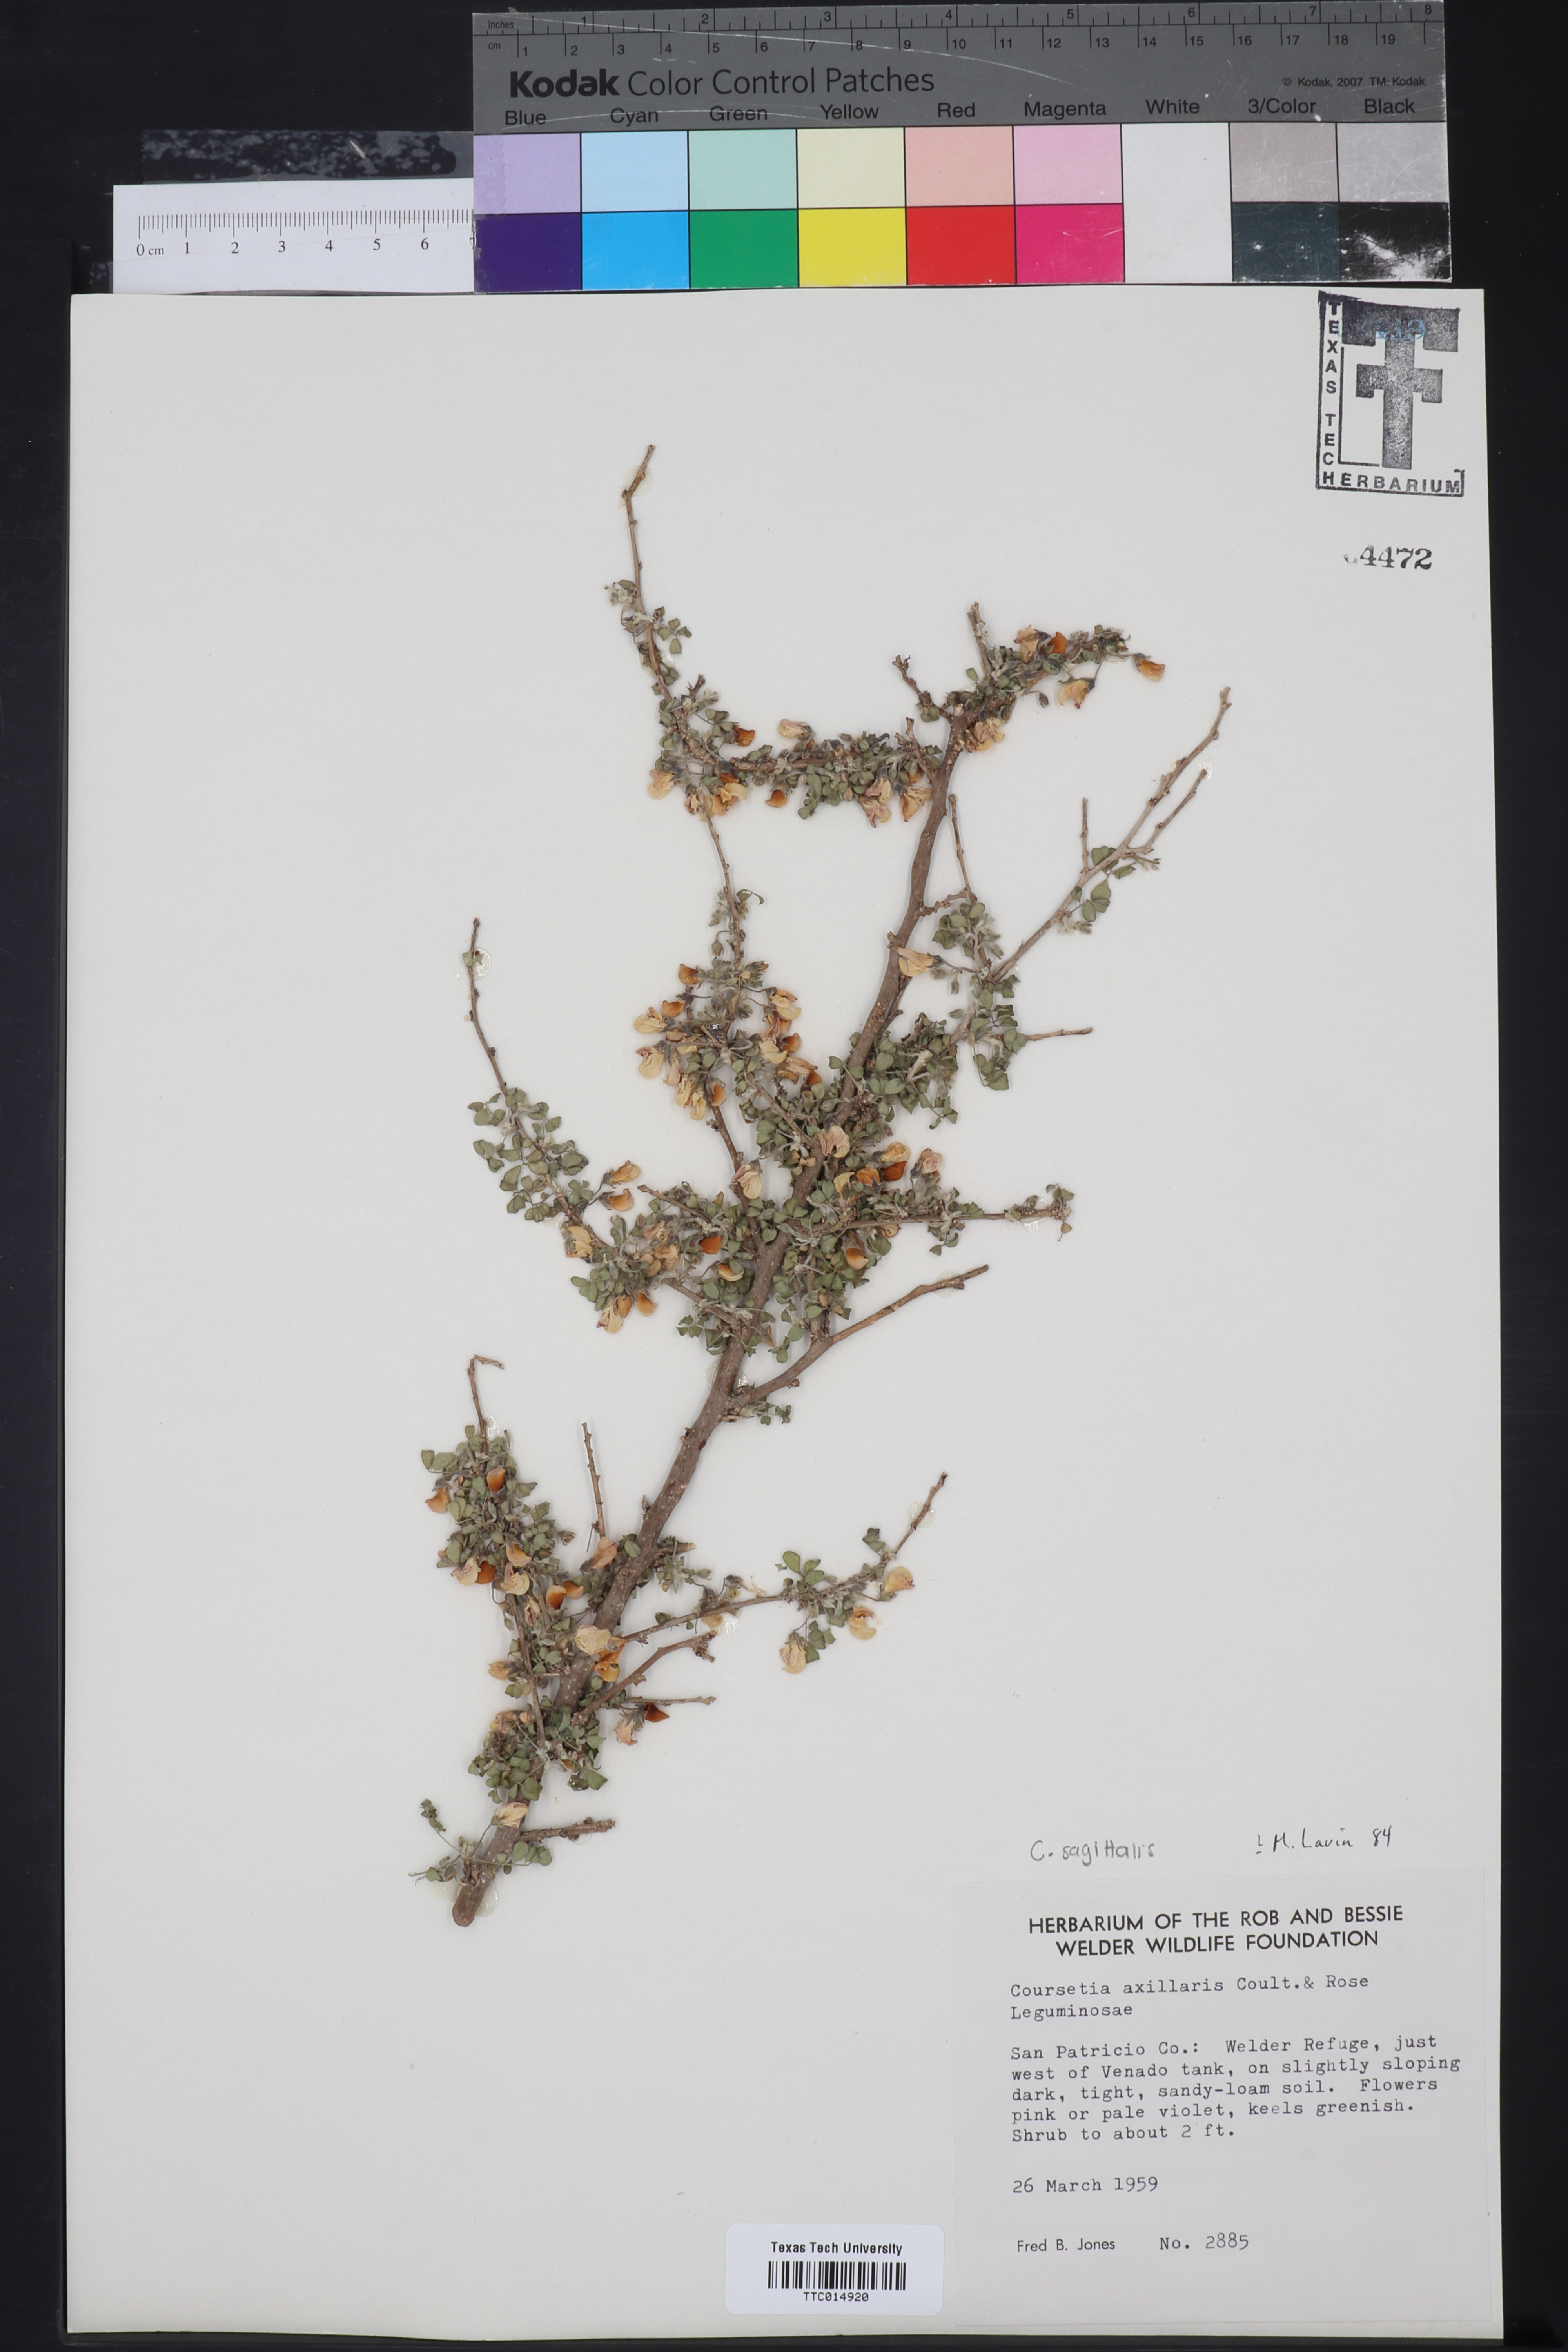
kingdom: Plantae
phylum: Tracheophyta
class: Magnoliopsida
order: Fabales
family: Fabaceae
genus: Coursetia
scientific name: Coursetia axillaris
